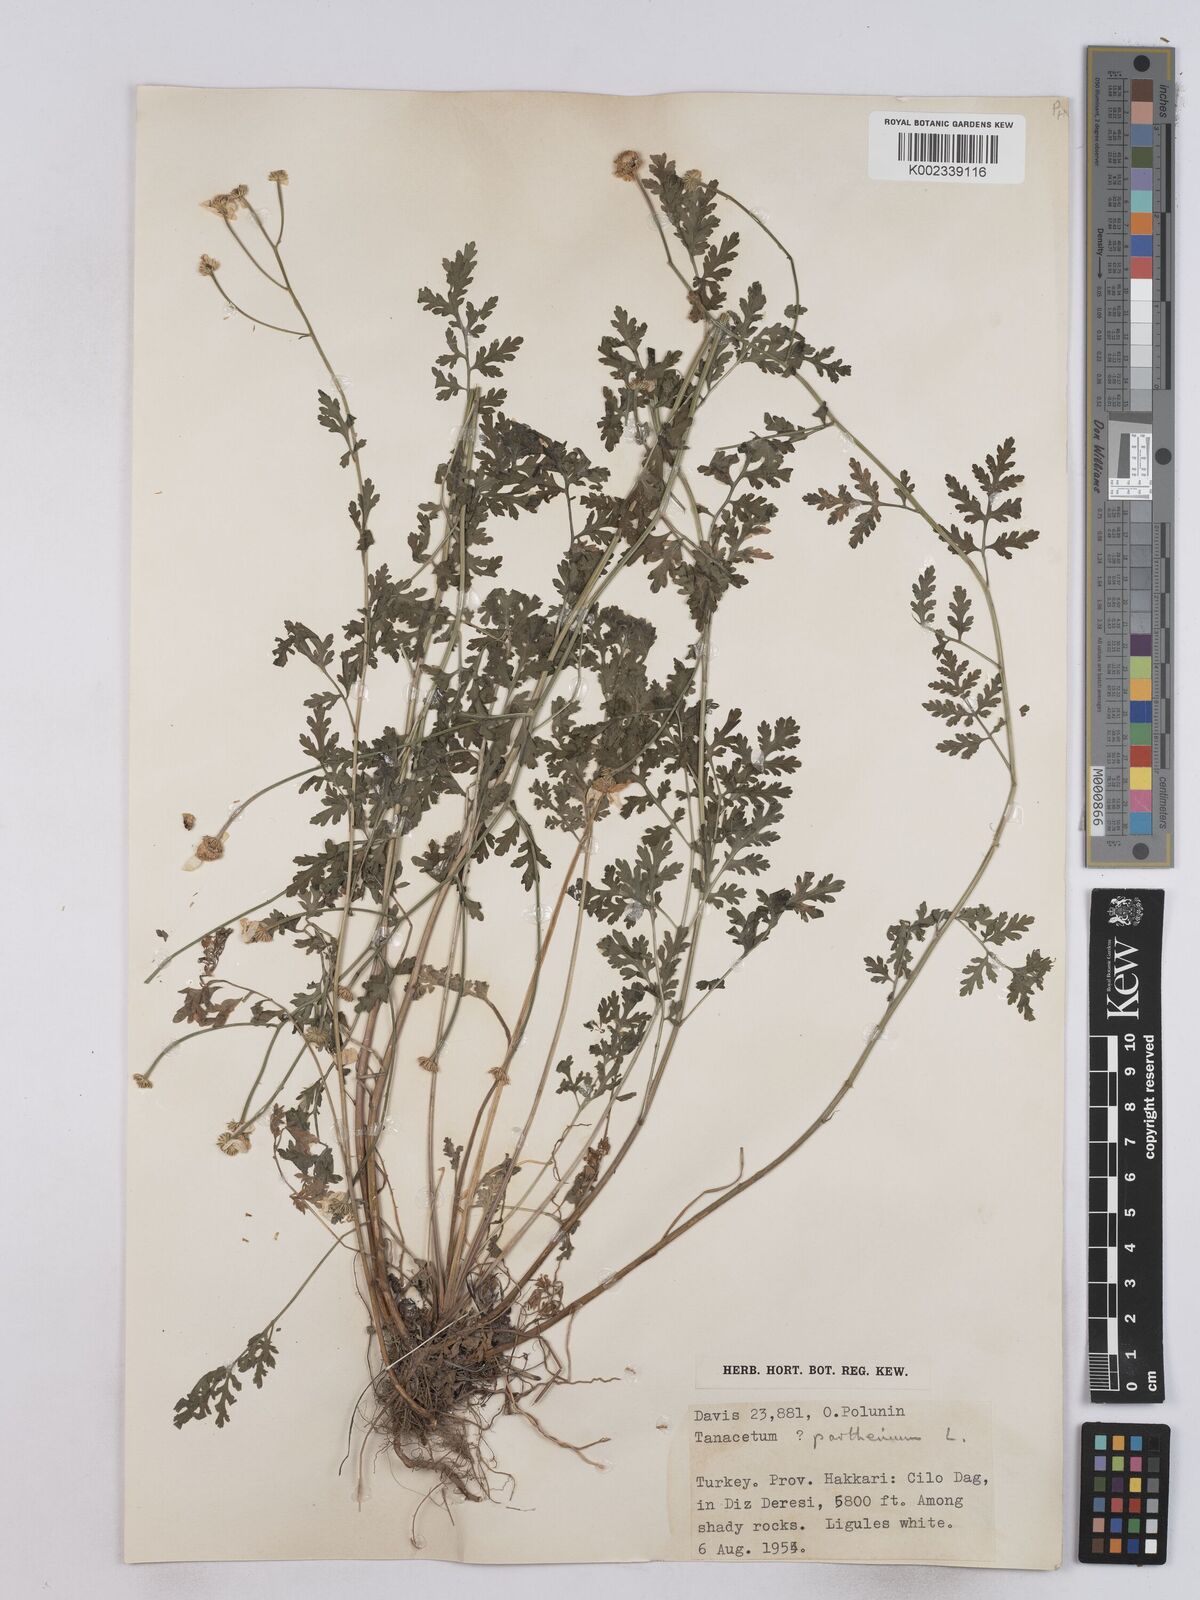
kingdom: Plantae
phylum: Tracheophyta
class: Magnoliopsida
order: Asterales
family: Asteraceae
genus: Tanacetum
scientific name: Tanacetum parthenium
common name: Feverfew
